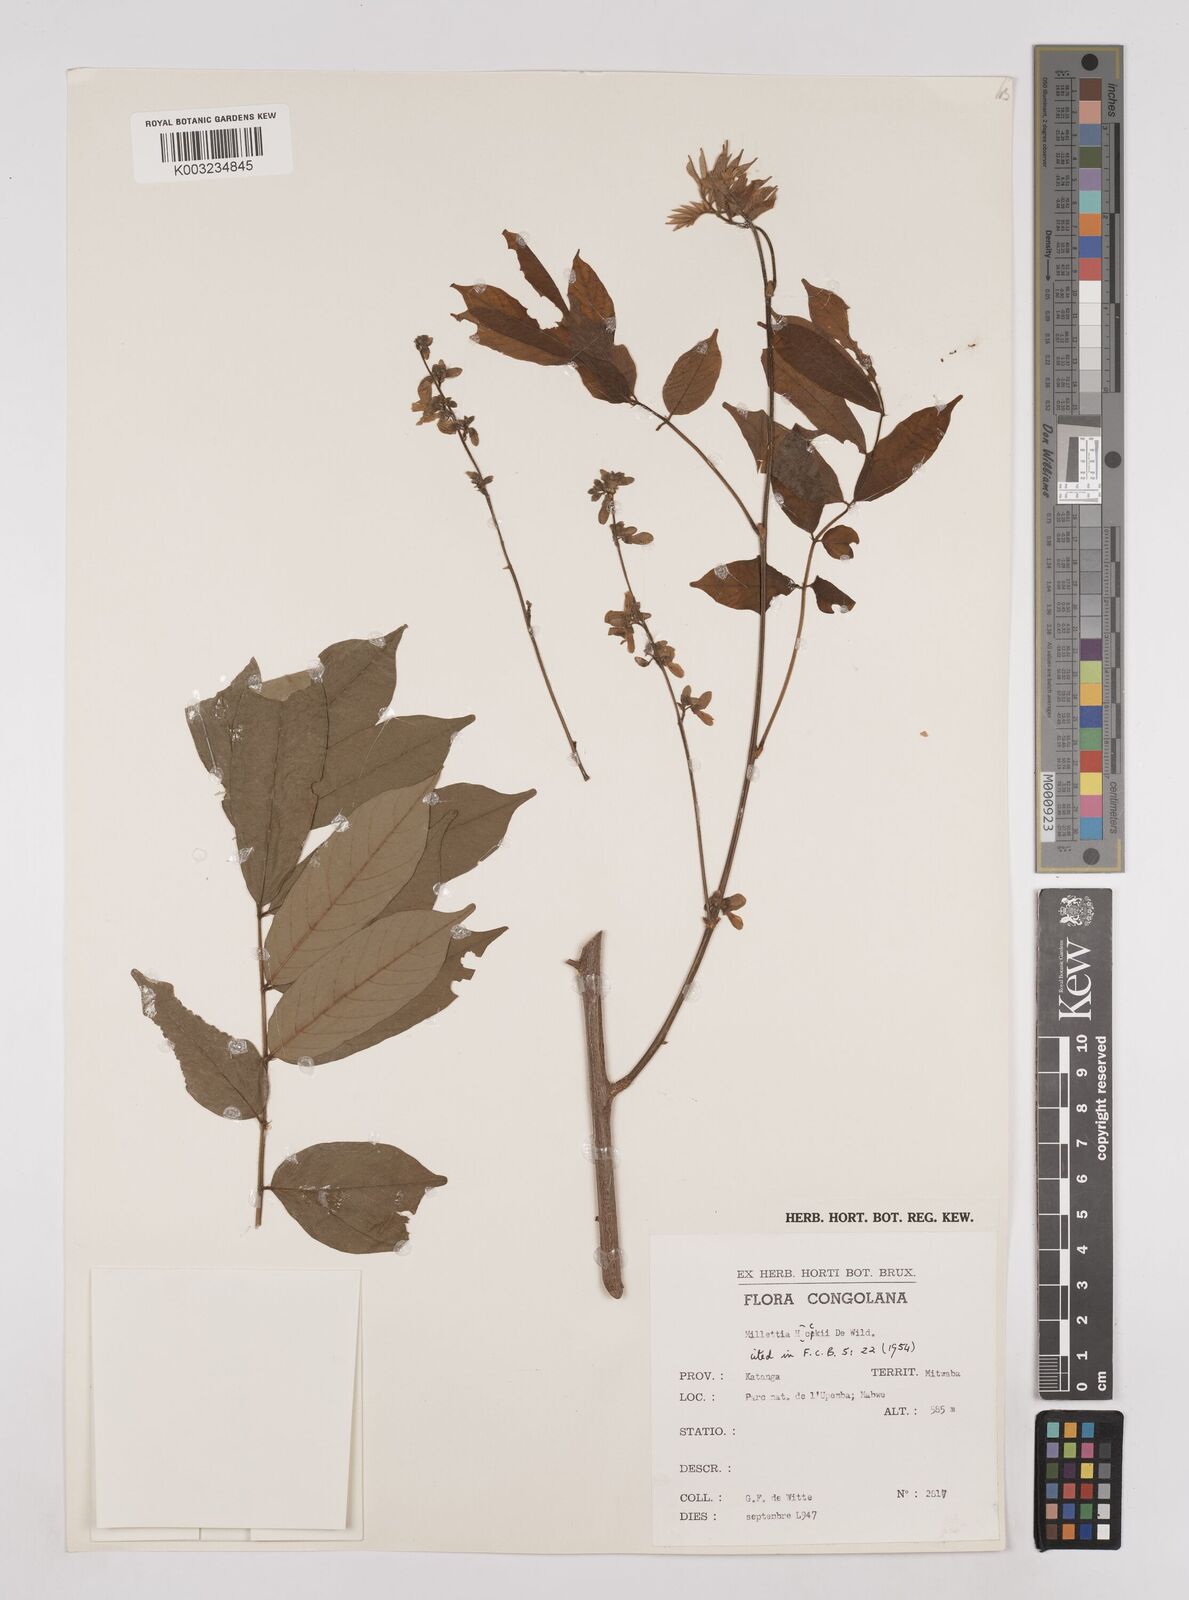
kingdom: Plantae
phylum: Tracheophyta
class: Magnoliopsida
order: Fabales
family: Fabaceae
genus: Millettia
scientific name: Millettia hockii
